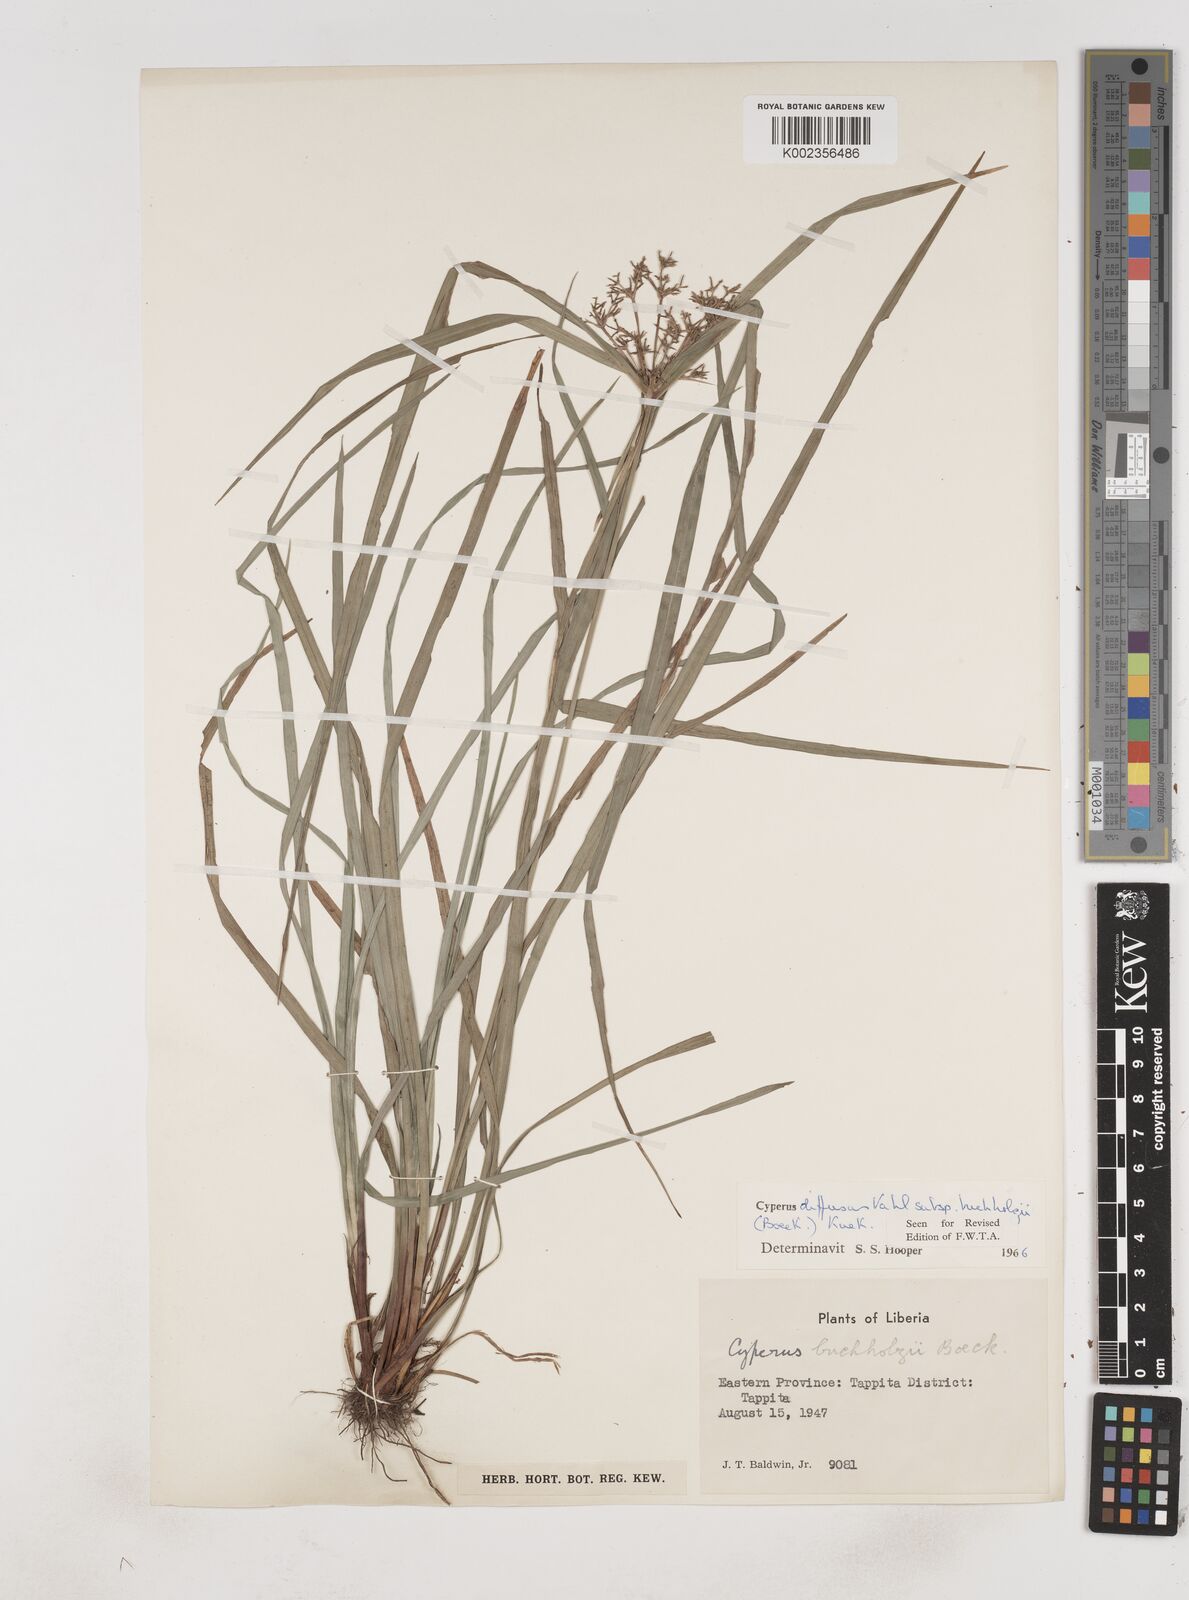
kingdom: Plantae
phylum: Tracheophyta
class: Liliopsida
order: Poales
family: Cyperaceae
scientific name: Cyperaceae
